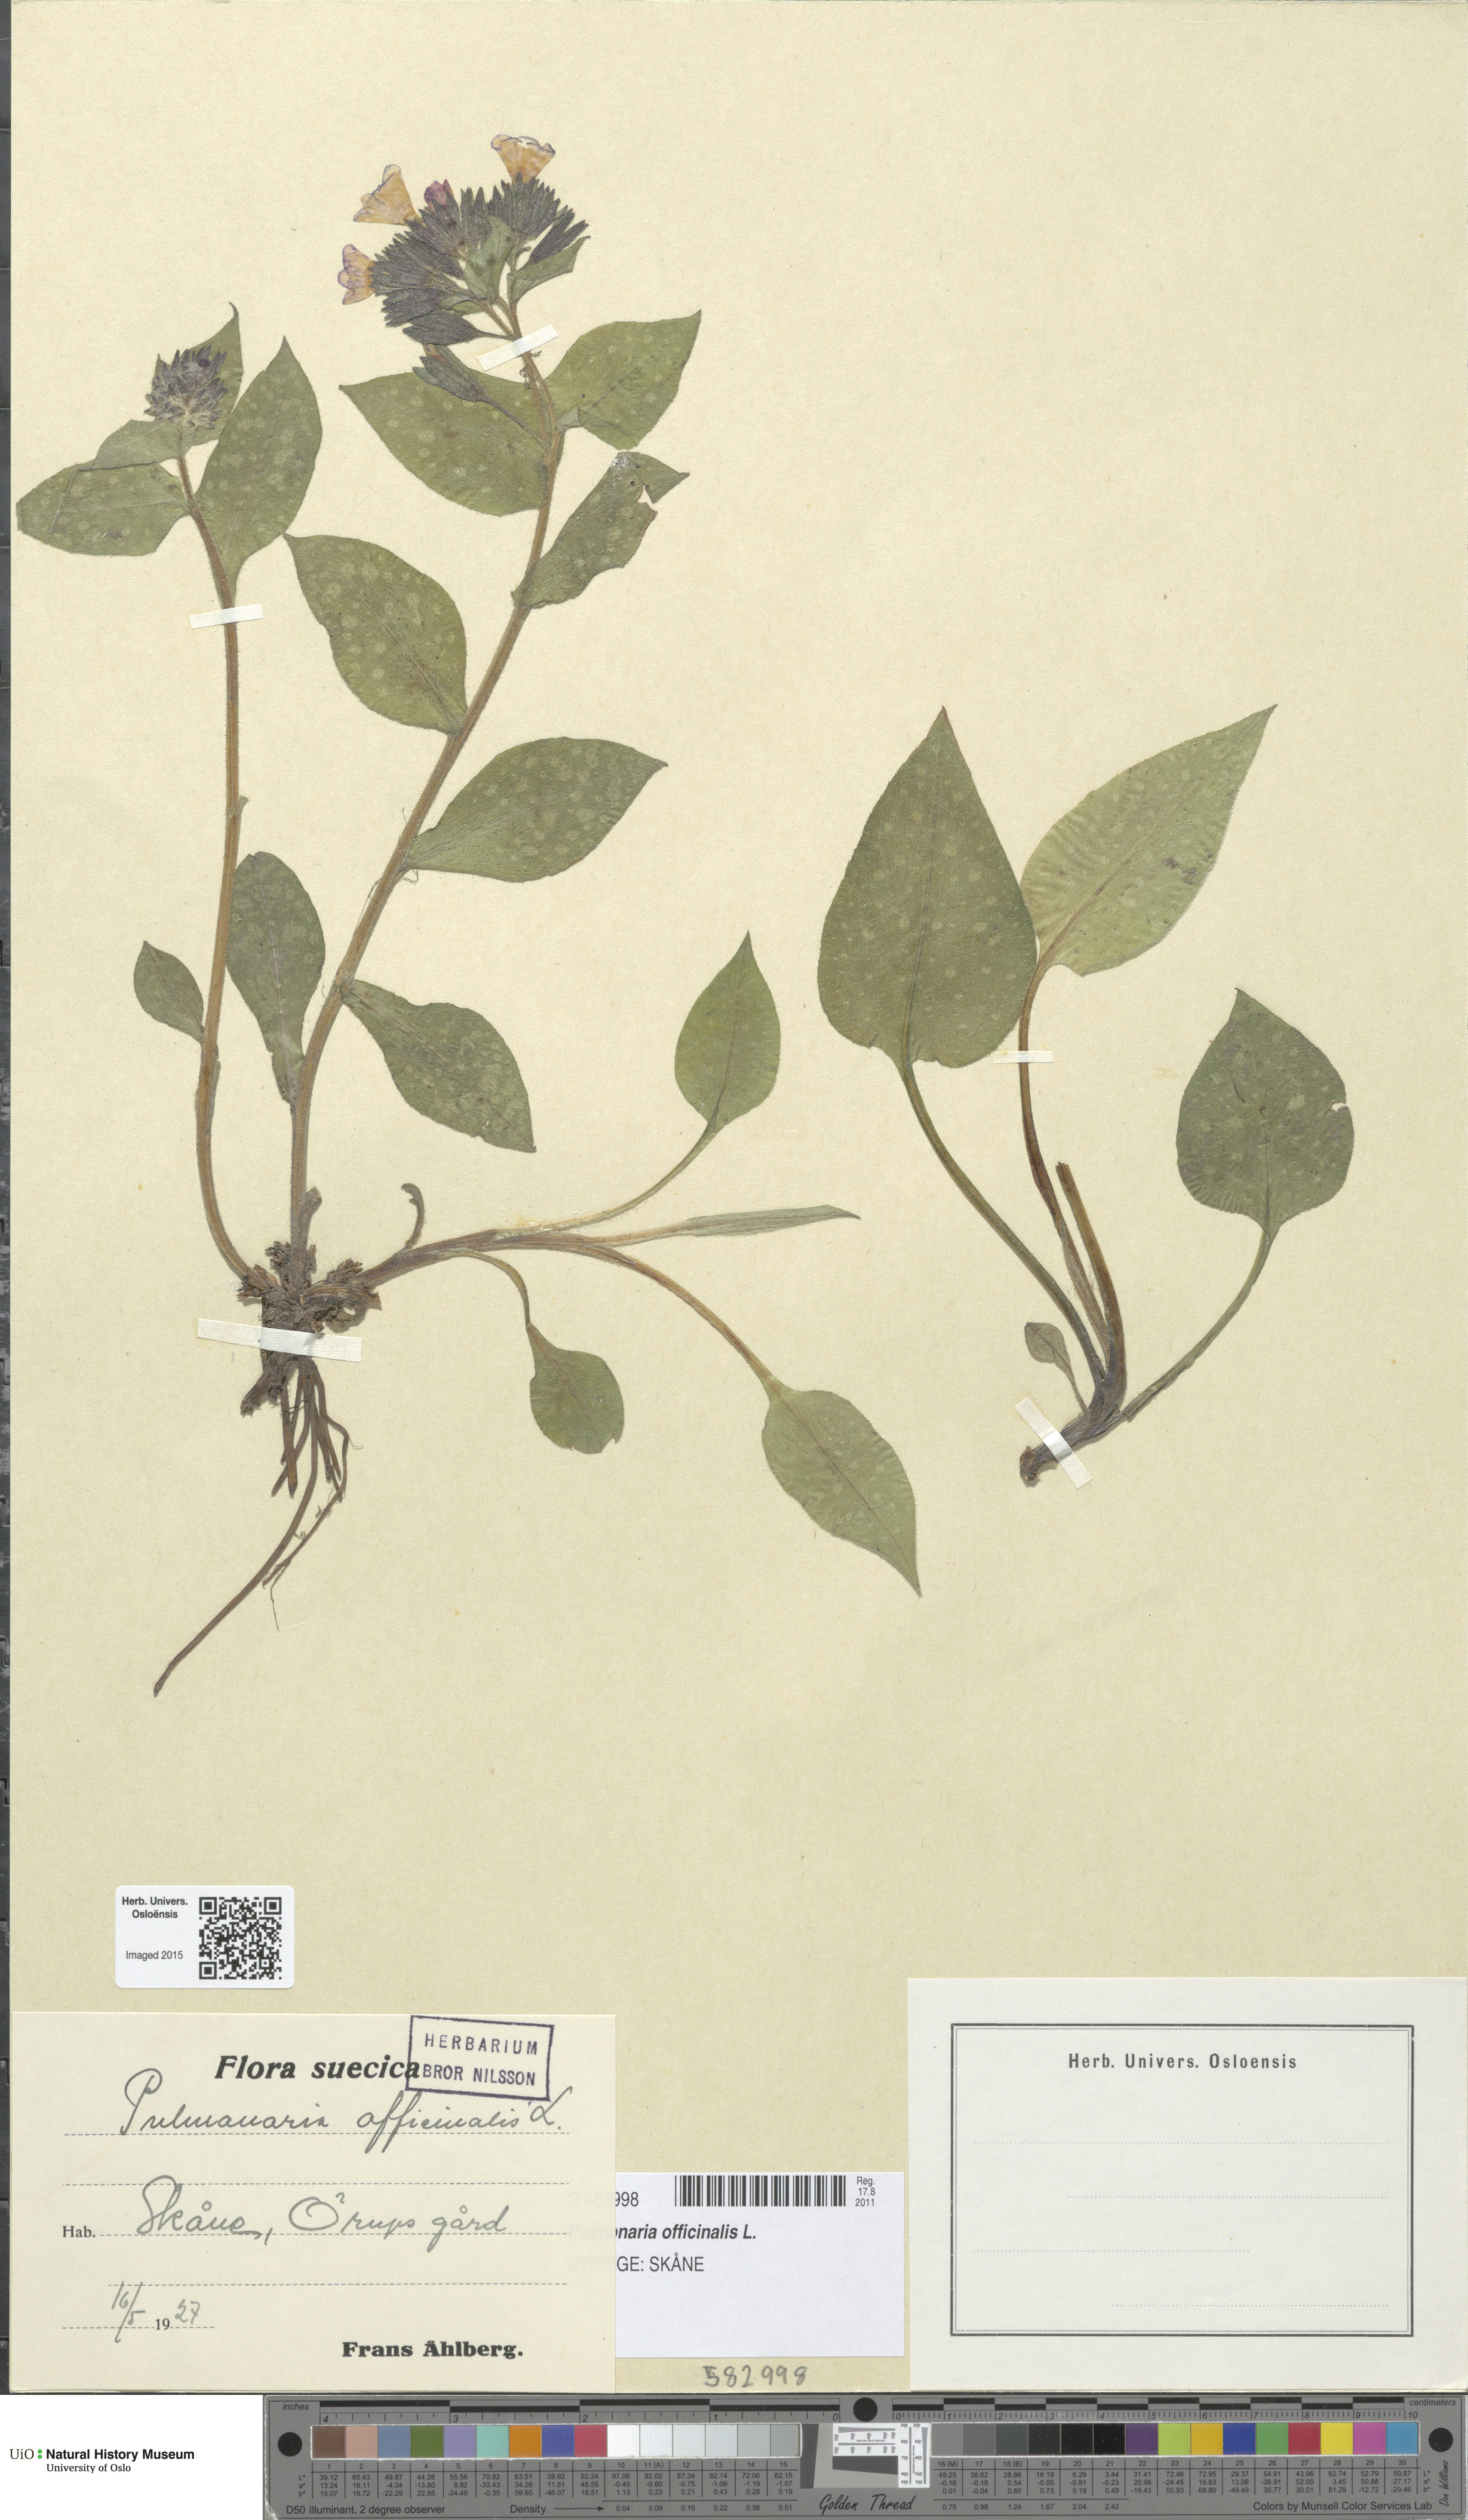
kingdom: Plantae
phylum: Tracheophyta
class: Magnoliopsida
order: Boraginales
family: Boraginaceae
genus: Pulmonaria
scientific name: Pulmonaria officinalis
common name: Lungwort
